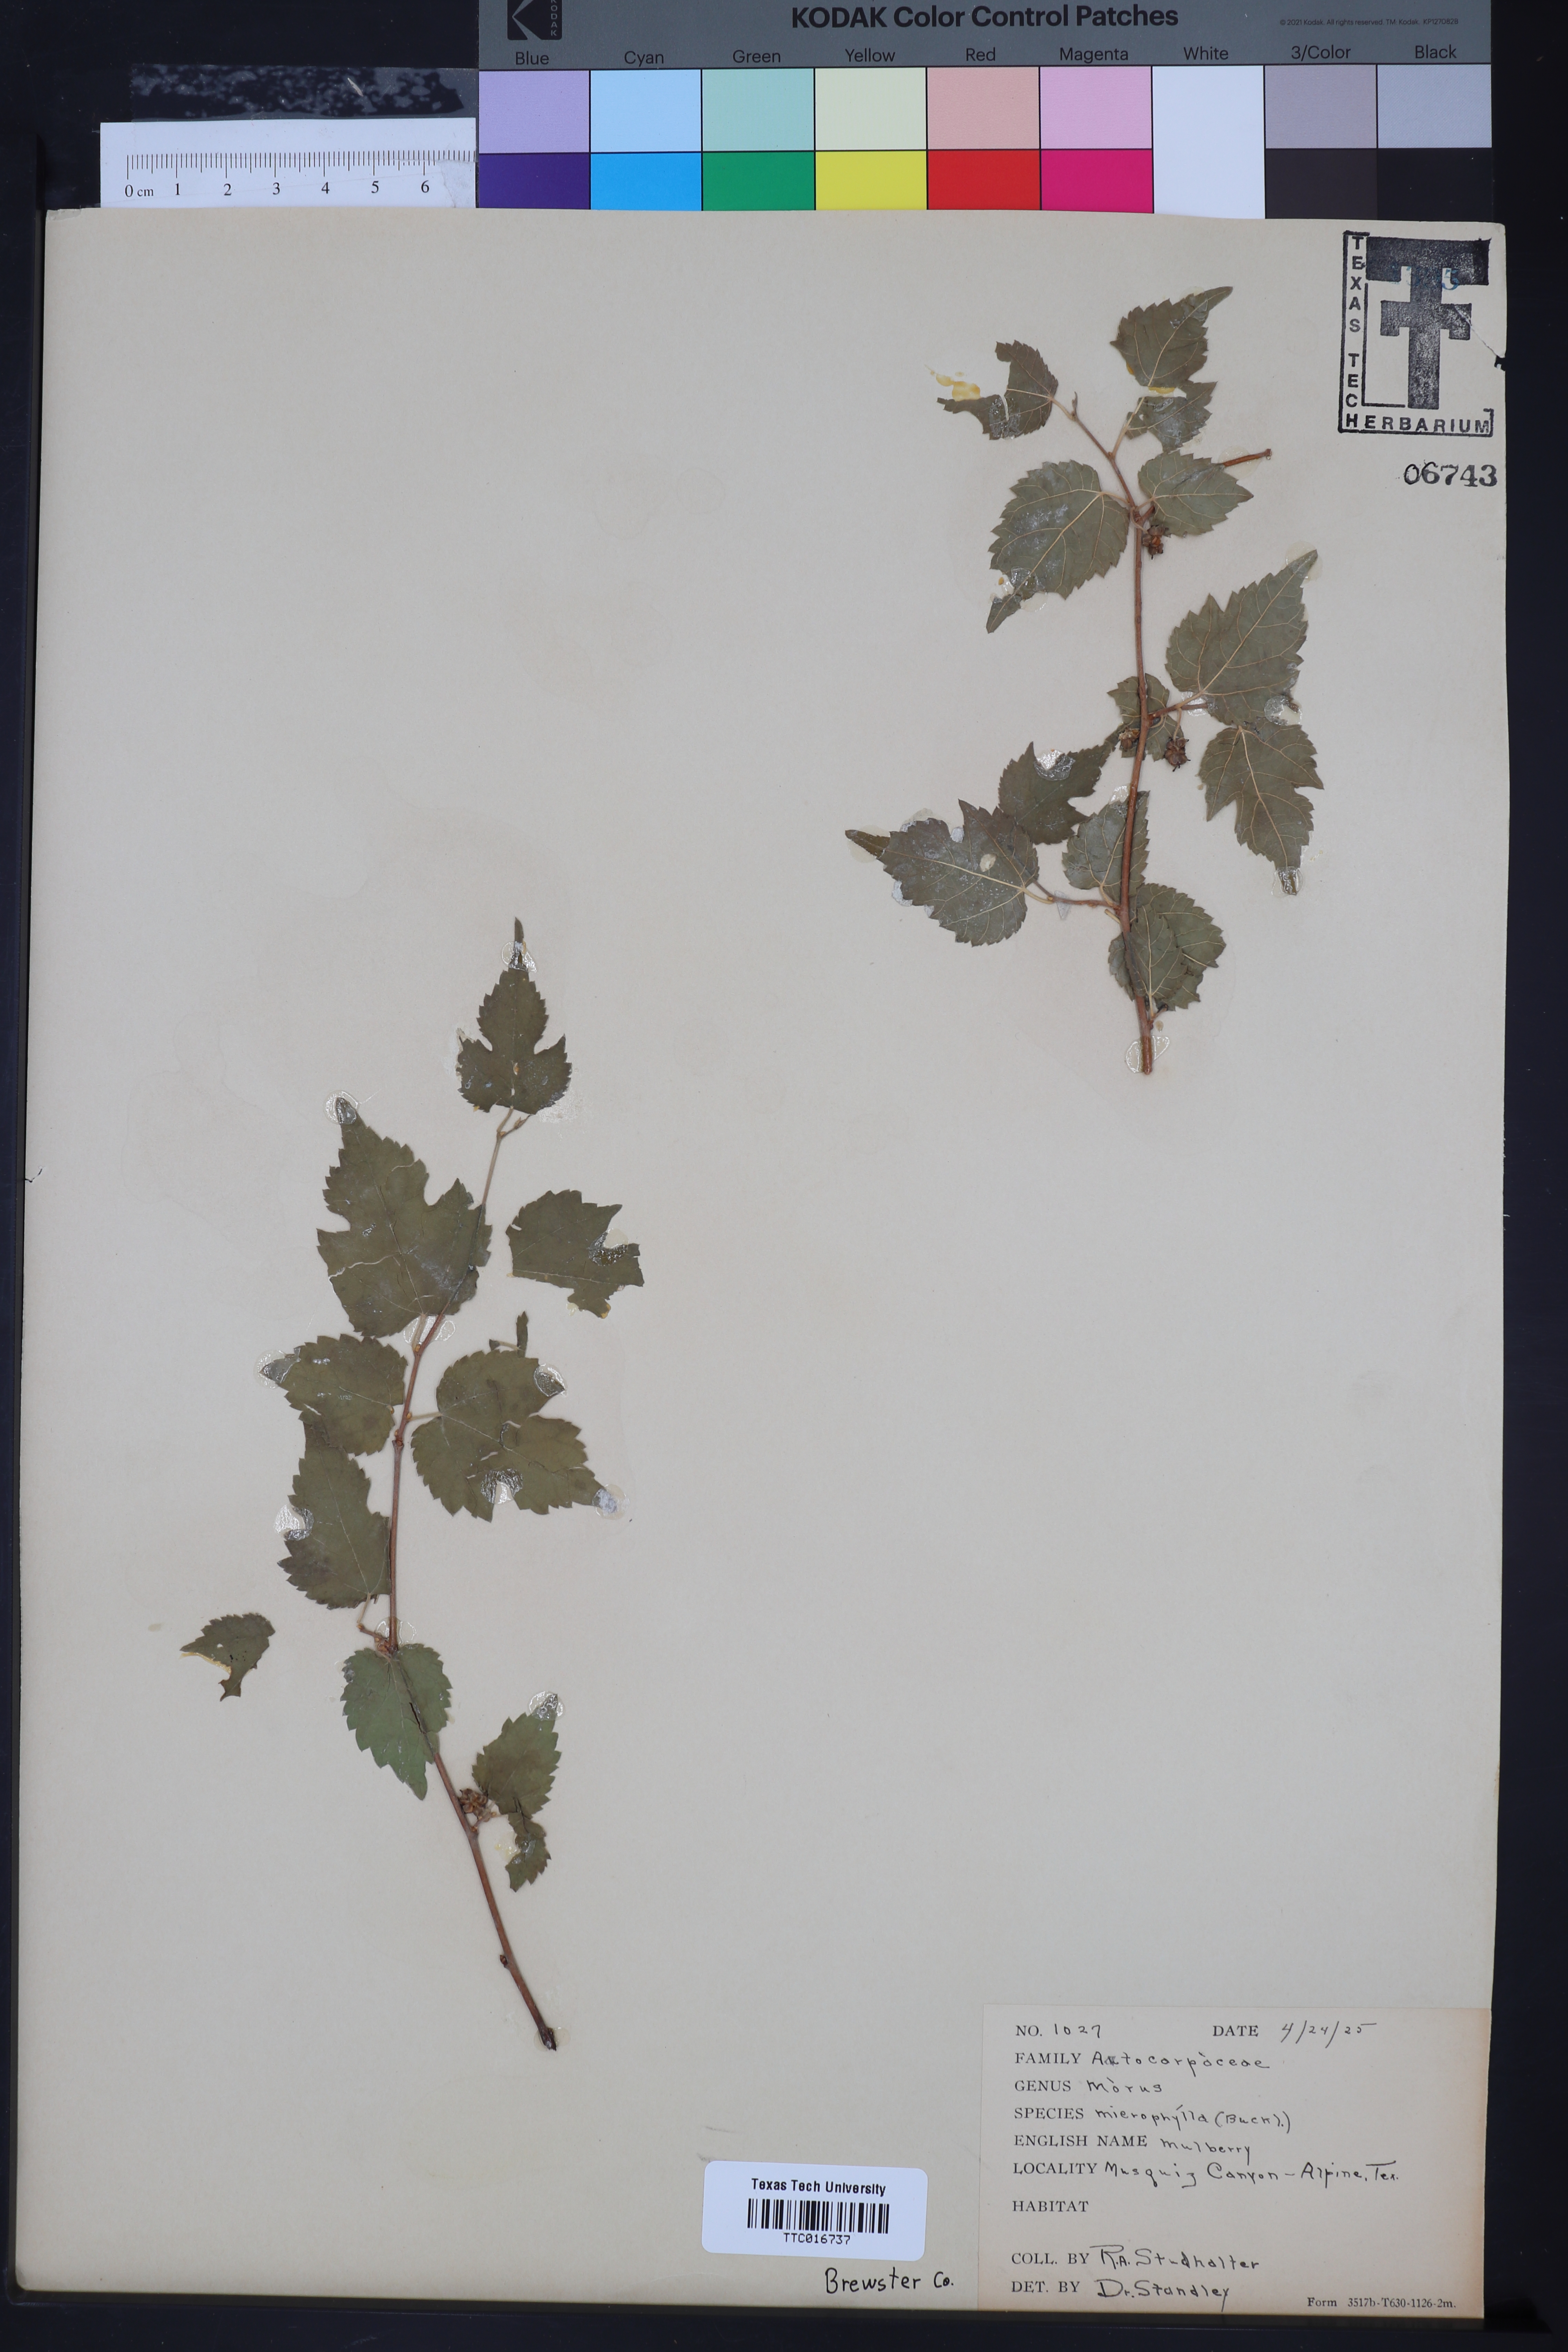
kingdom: Plantae
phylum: Tracheophyta
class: Magnoliopsida
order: Rosales
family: Moraceae
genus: Morus
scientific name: Morus microphylla
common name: Mexican mulberry
